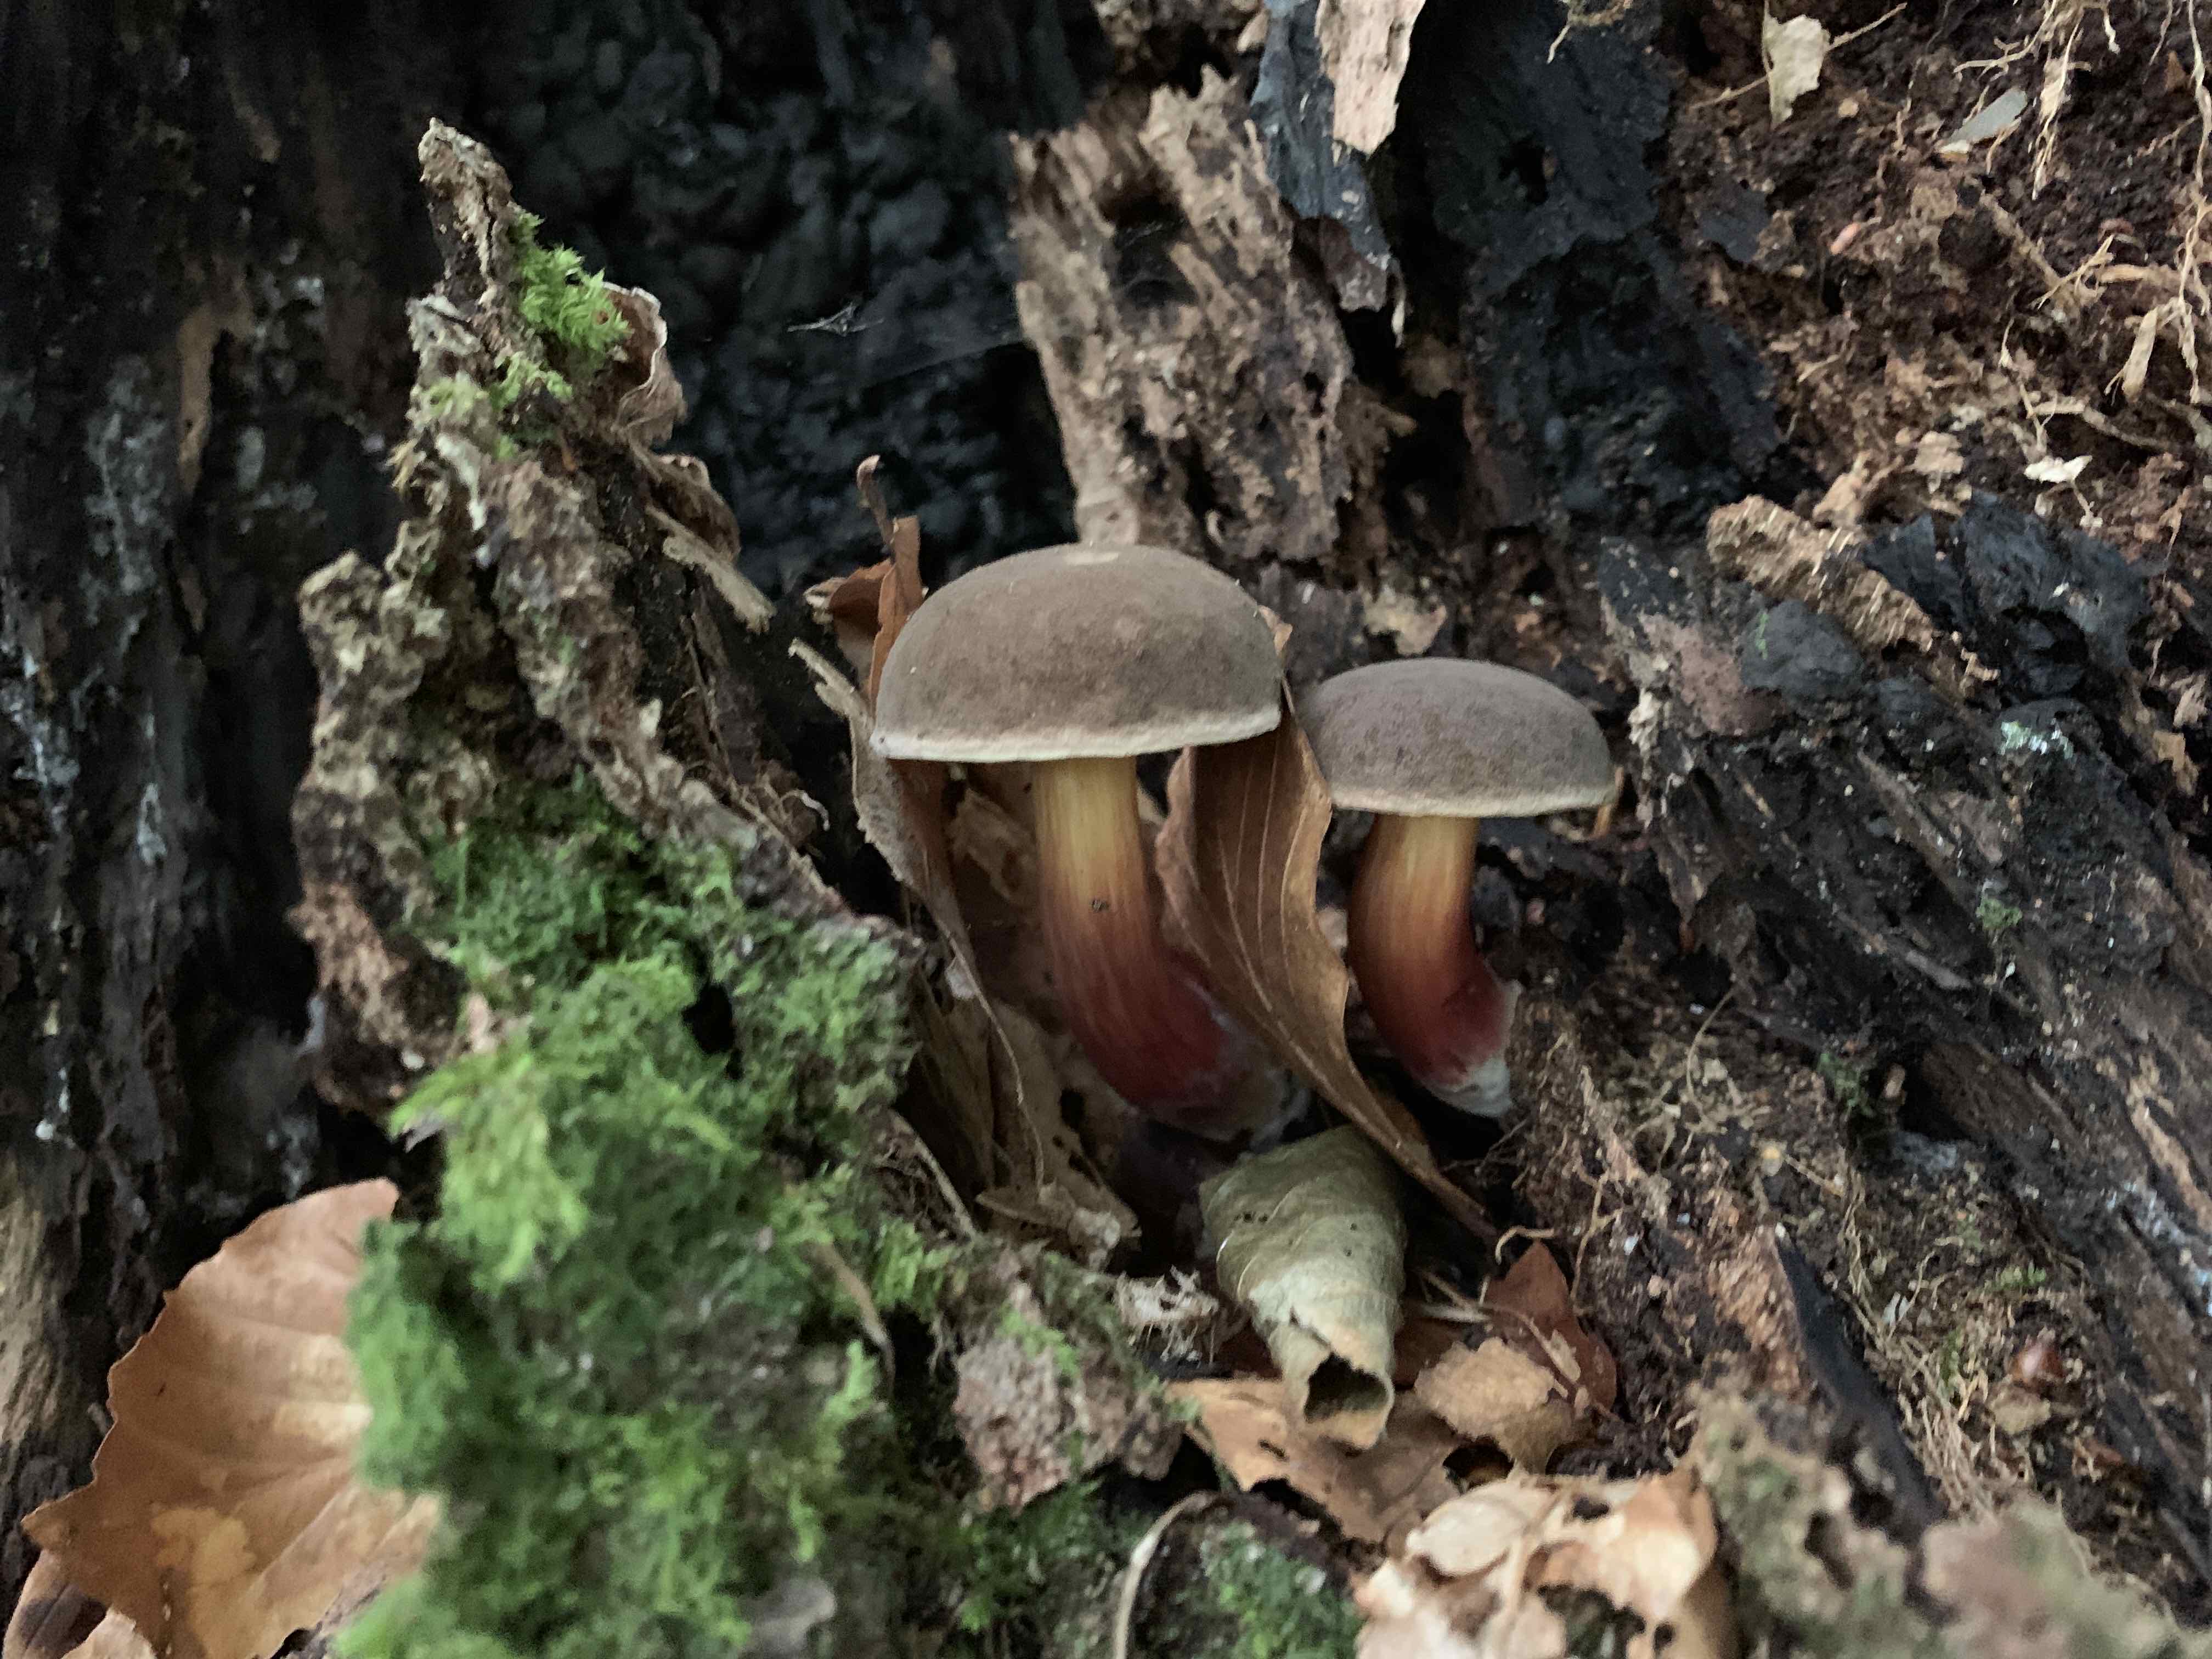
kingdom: Fungi
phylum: Basidiomycota
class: Agaricomycetes
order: Boletales
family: Boletaceae
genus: Xerocomellus
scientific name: Xerocomellus pruinatus
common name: dugget rørhat
